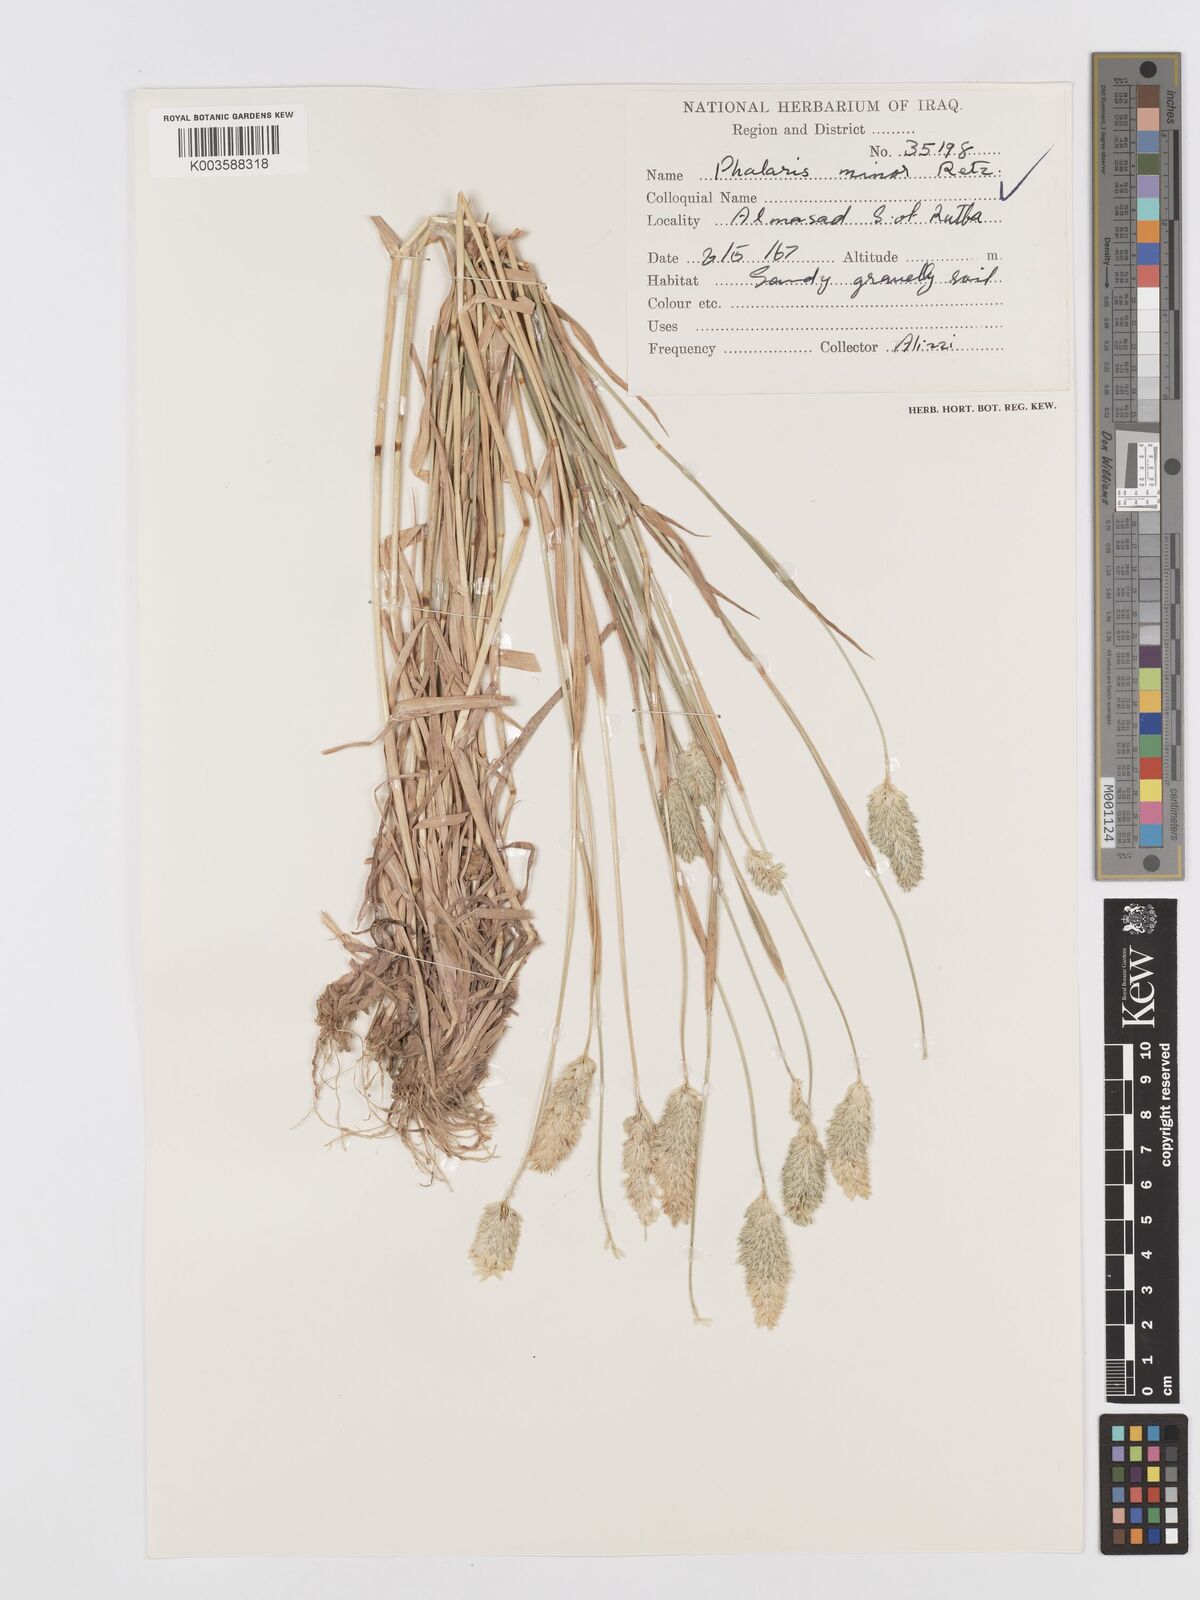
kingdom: Plantae
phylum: Tracheophyta
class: Liliopsida
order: Poales
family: Poaceae
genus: Phalaris
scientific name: Phalaris minor
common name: Littleseed canarygrass
